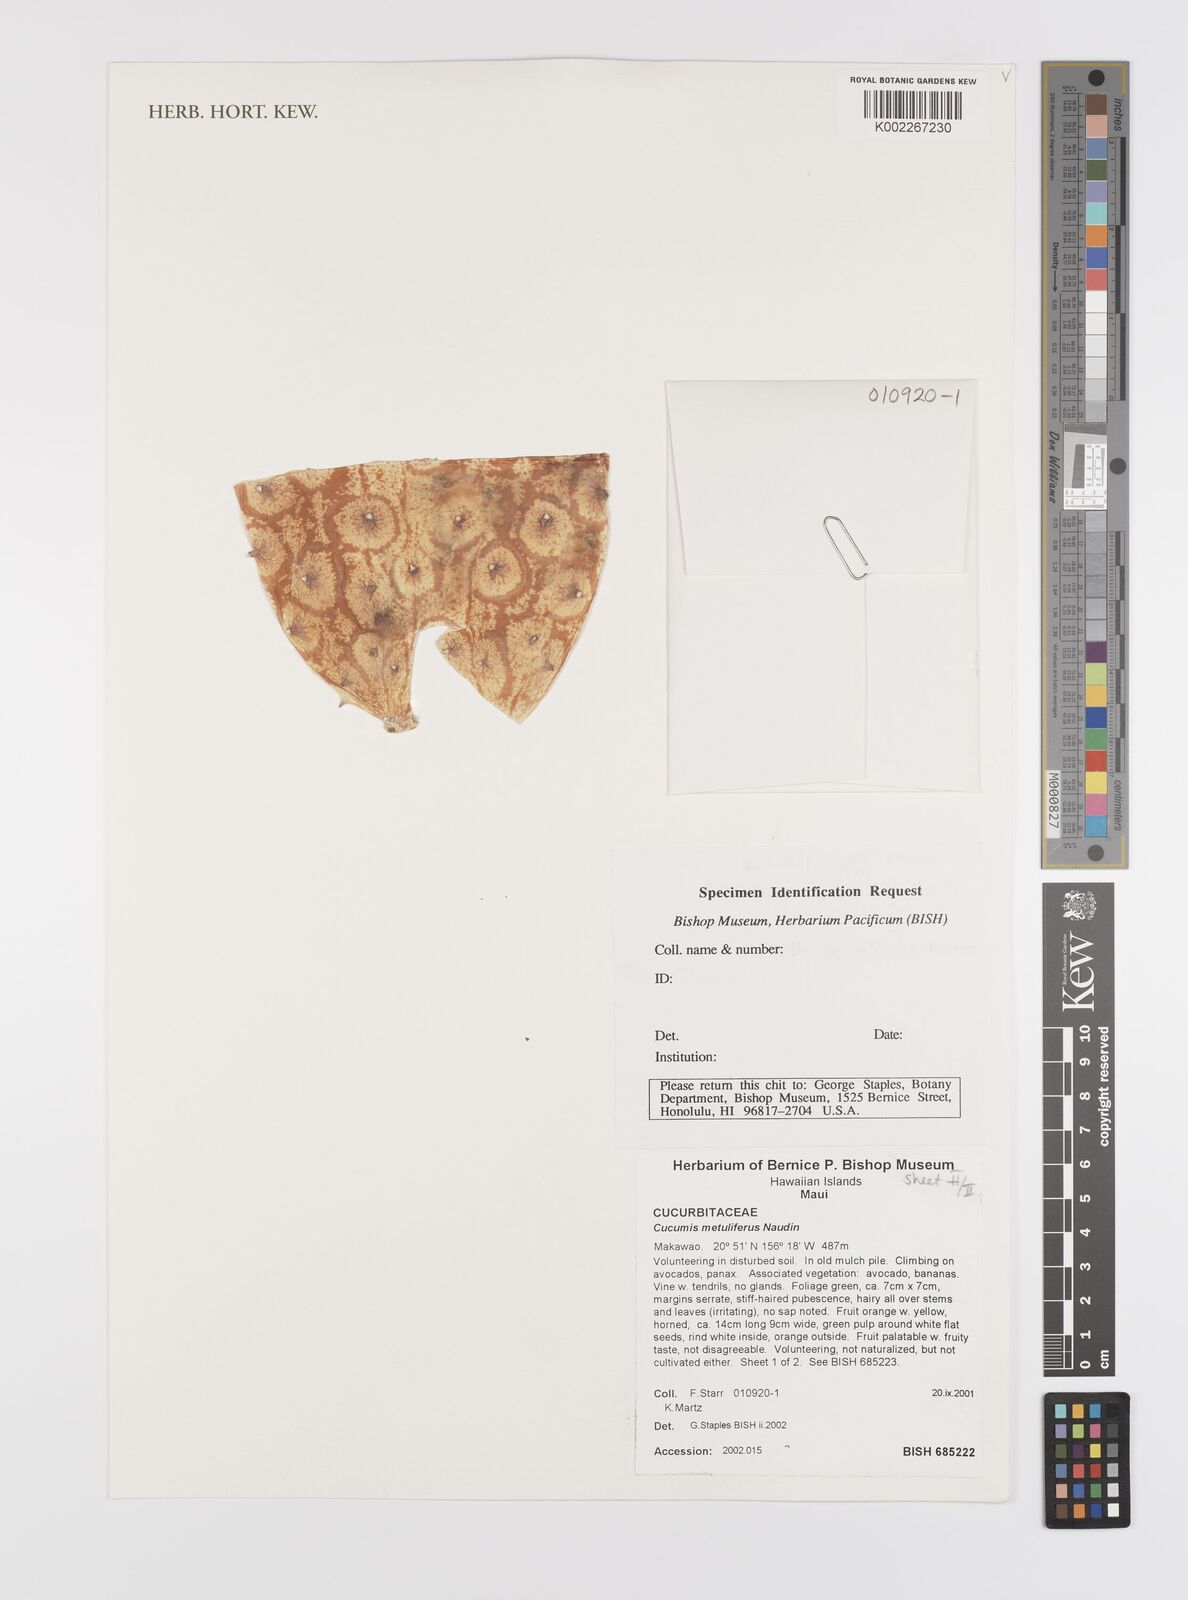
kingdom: Plantae
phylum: Tracheophyta
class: Magnoliopsida
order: Cucurbitales
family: Cucurbitaceae
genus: Cucumis
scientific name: Cucumis metuliferus
